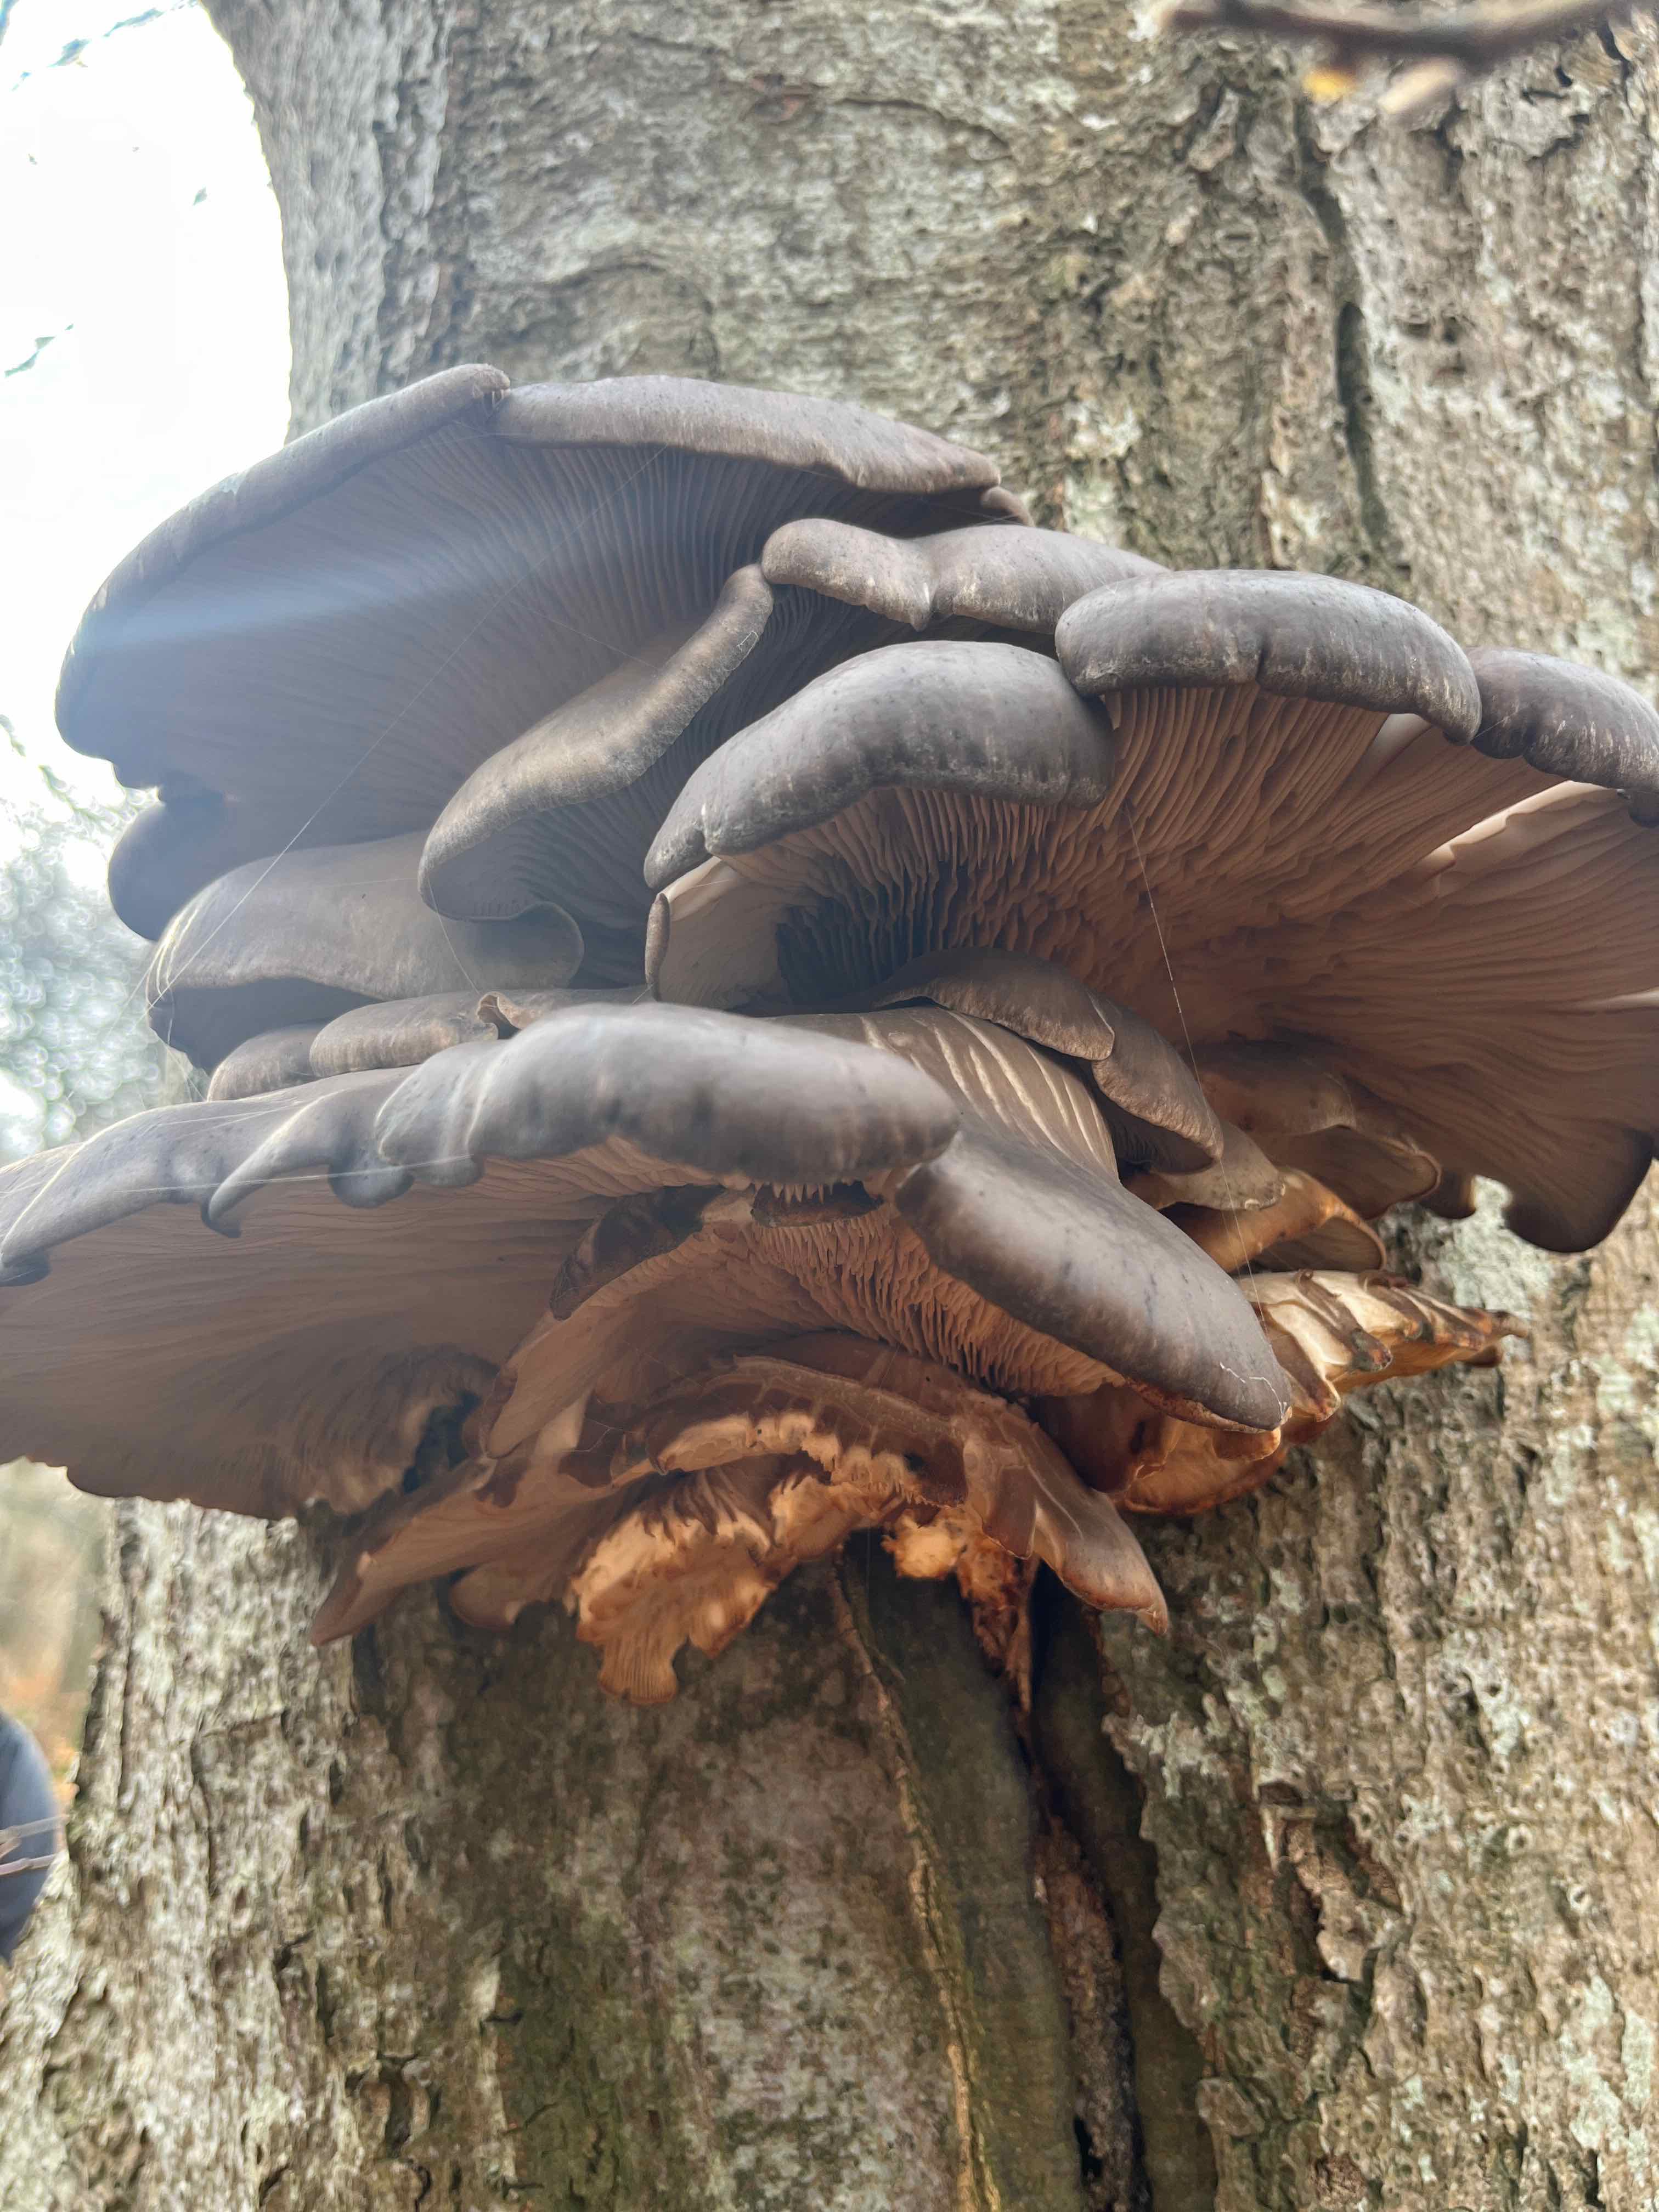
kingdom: Fungi
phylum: Basidiomycota
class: Agaricomycetes
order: Agaricales
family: Pleurotaceae
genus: Pleurotus
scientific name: Pleurotus ostreatus
